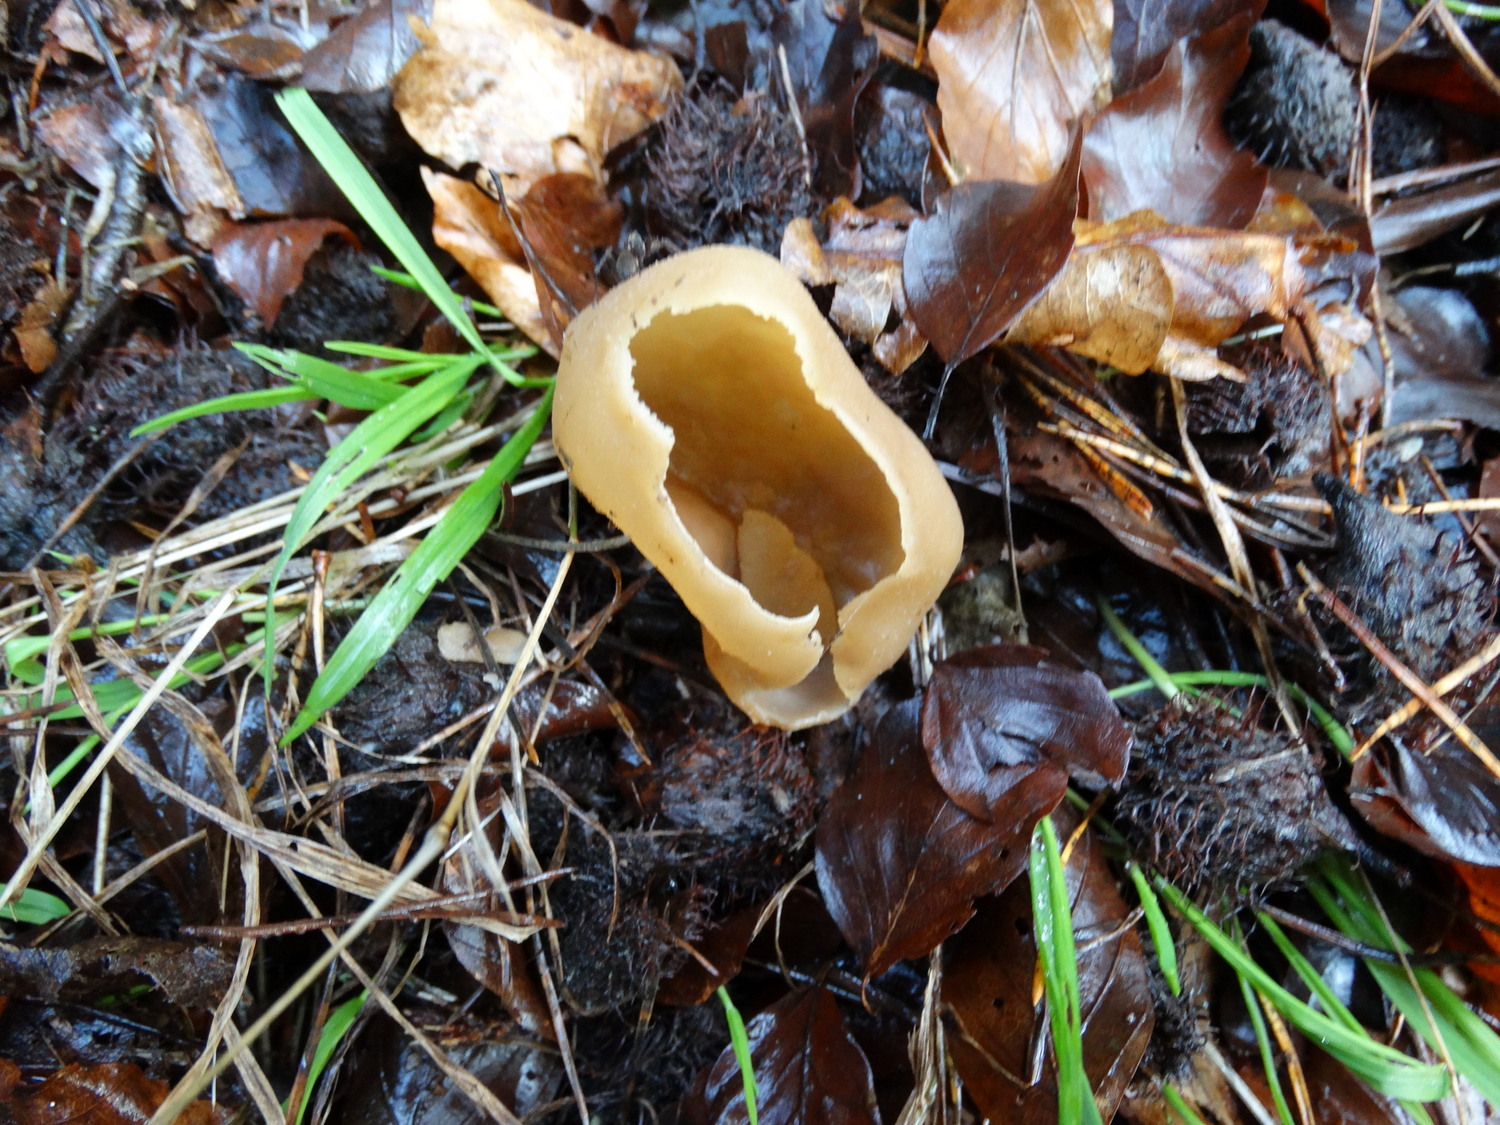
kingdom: Fungi
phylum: Ascomycota
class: Pezizomycetes
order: Pezizales
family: Pezizaceae
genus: Peziza
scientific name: Peziza
